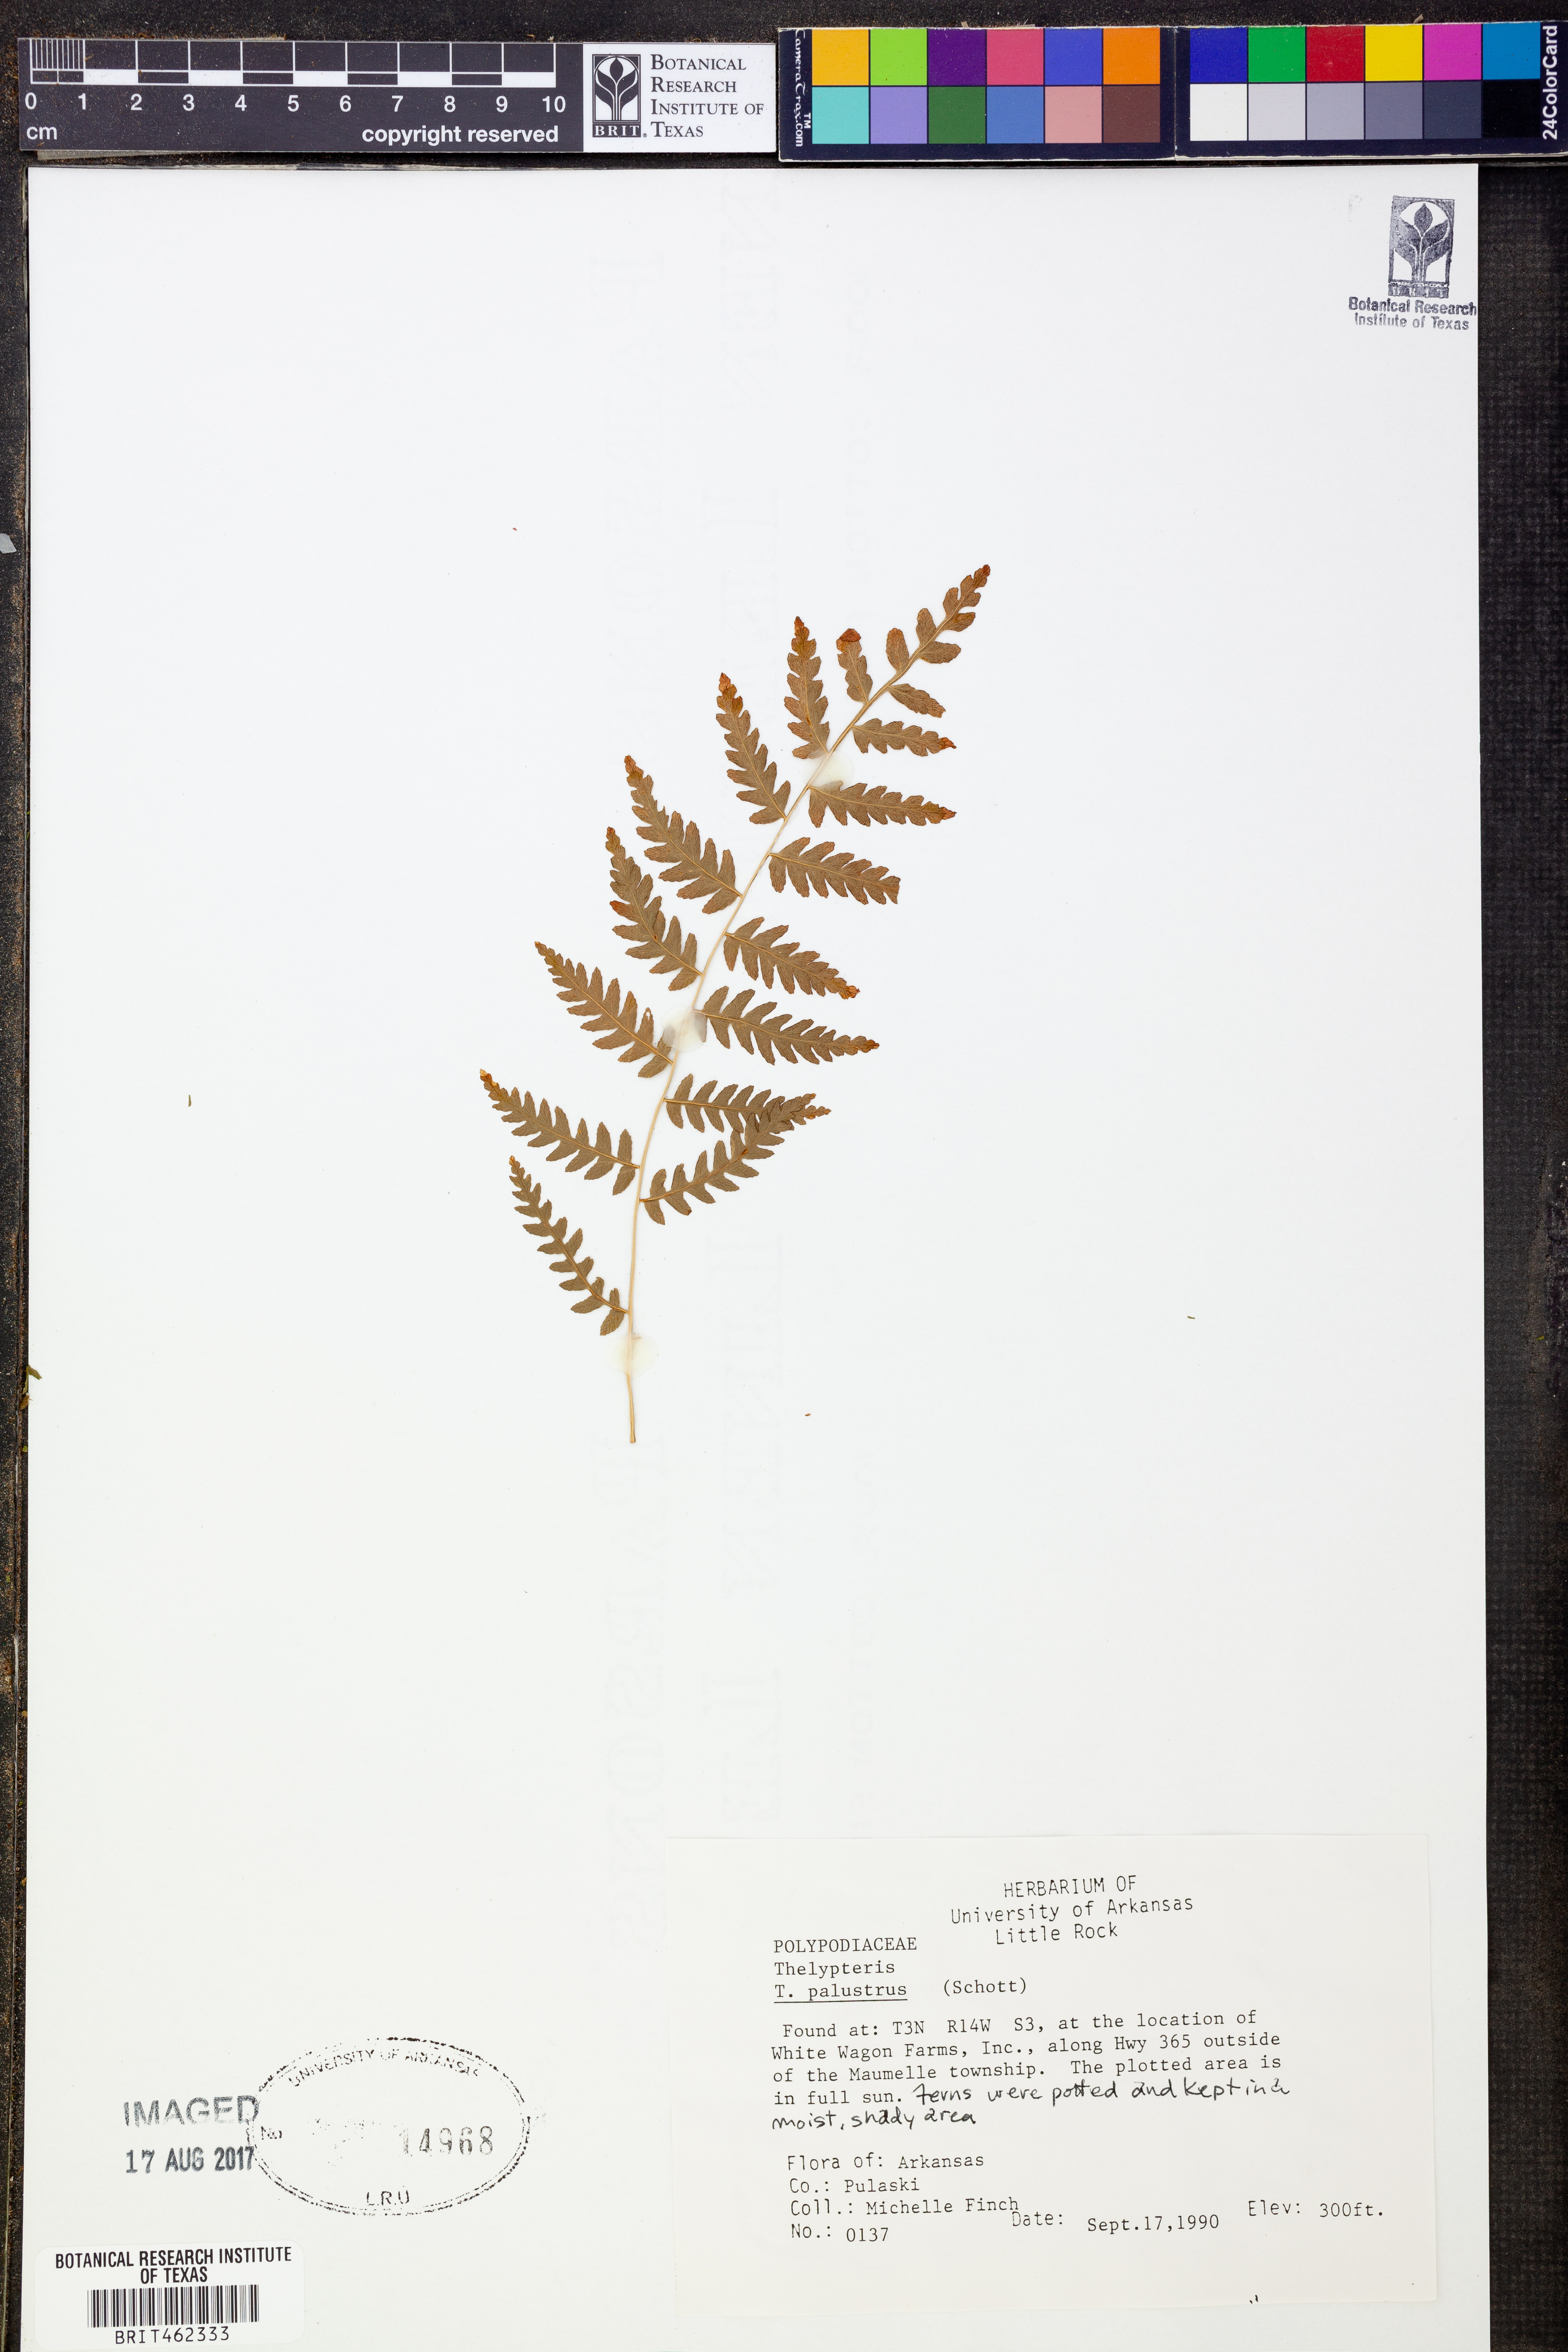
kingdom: Plantae
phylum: Tracheophyta
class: Polypodiopsida
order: Polypodiales
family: Thelypteridaceae
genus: Thelypteris
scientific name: Thelypteris palustris
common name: Marsh fern
